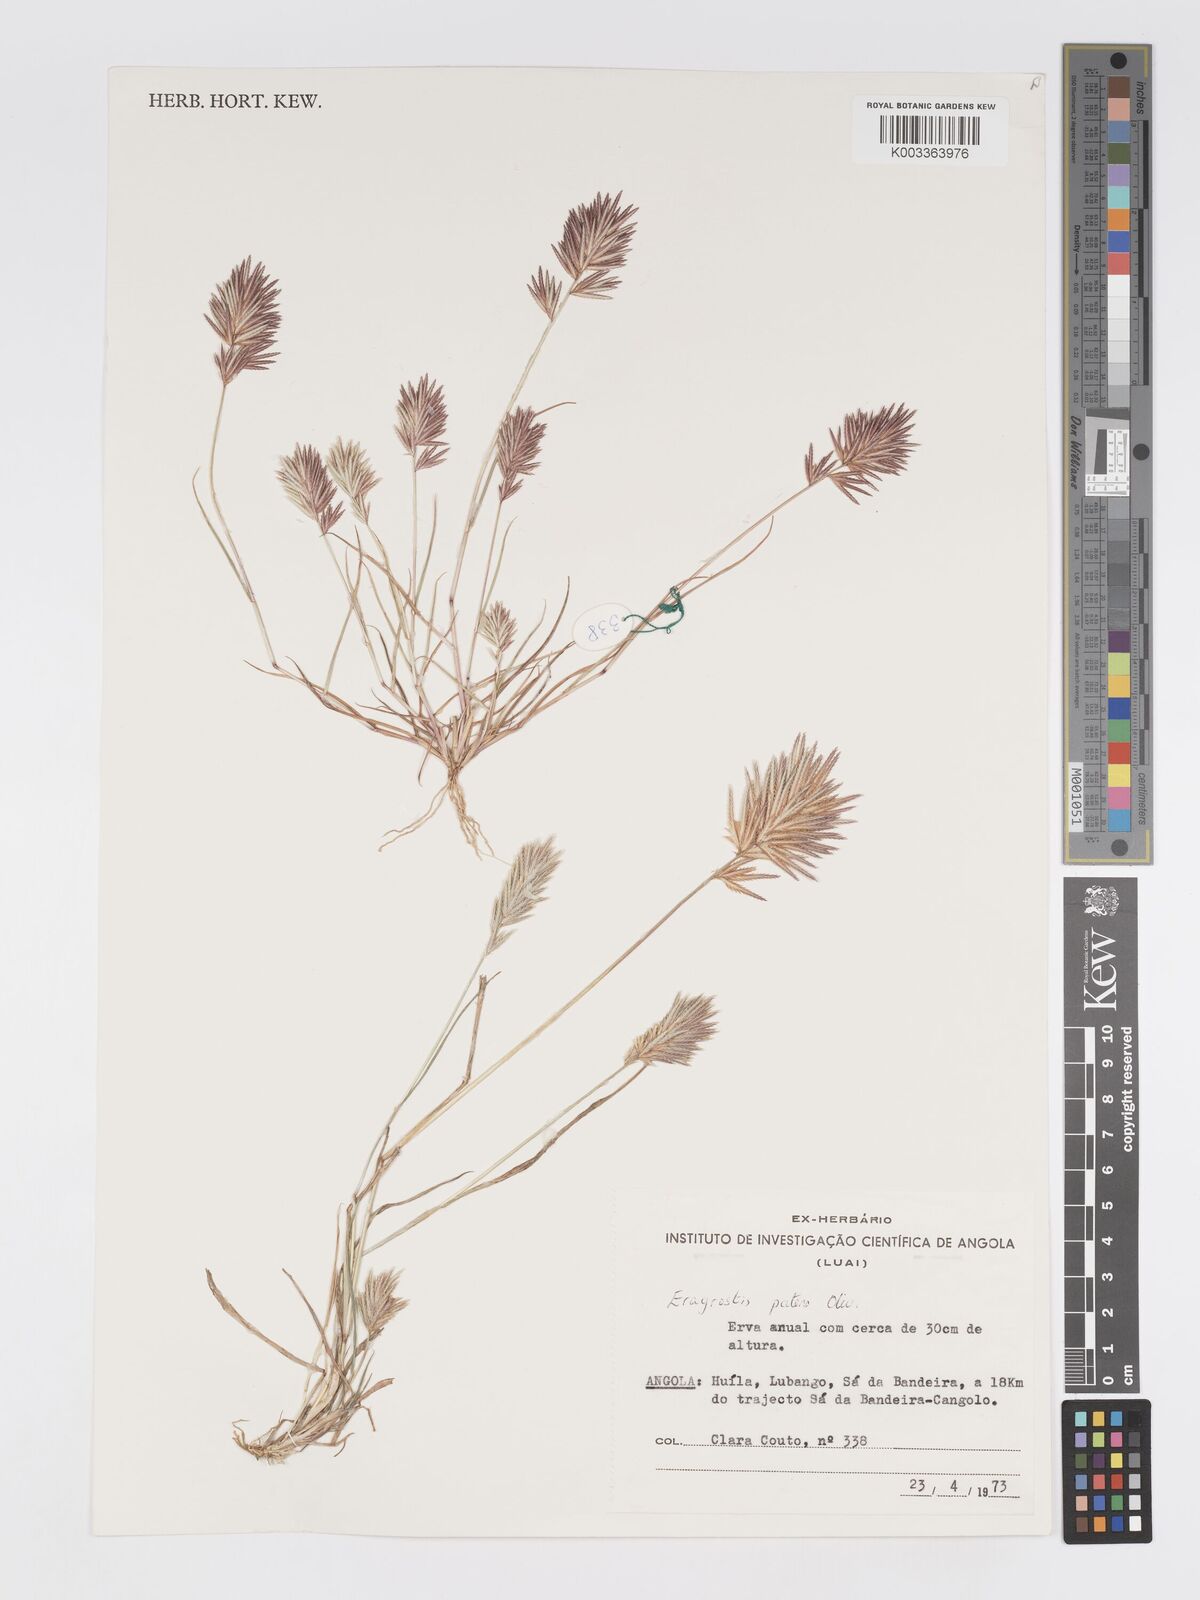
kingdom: Plantae
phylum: Tracheophyta
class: Liliopsida
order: Poales
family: Poaceae
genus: Eragrostis
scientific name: Eragrostis patens
